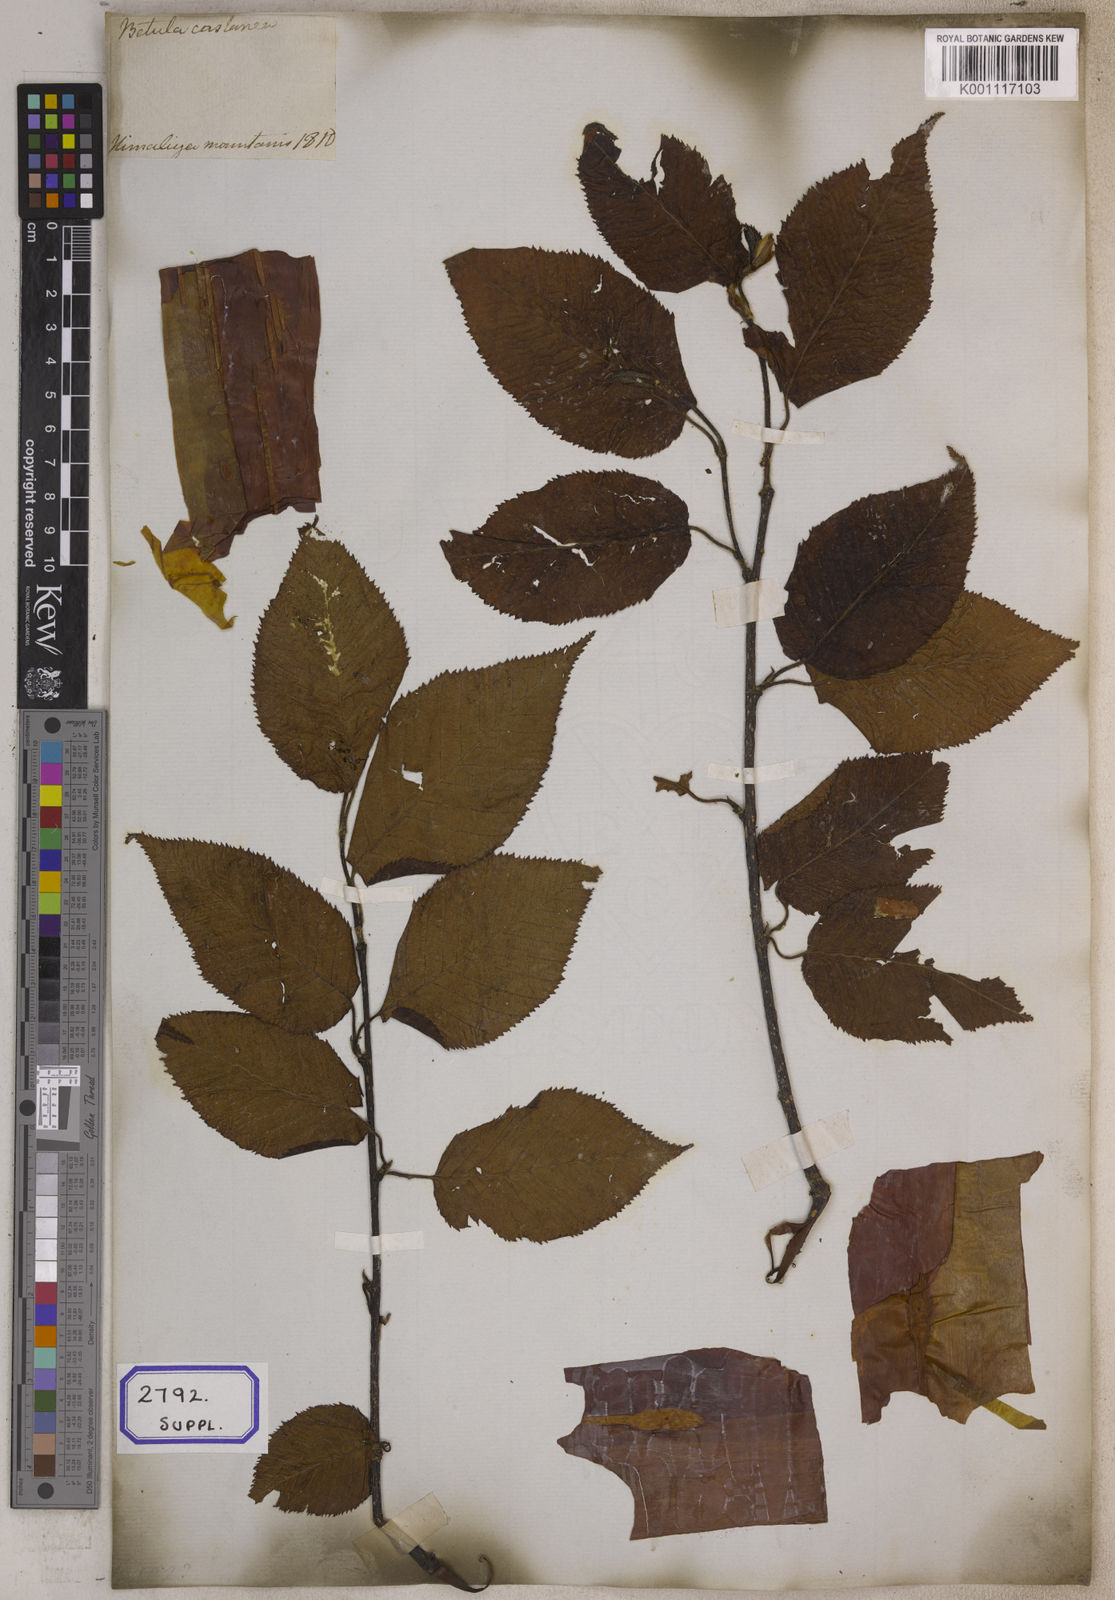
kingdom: Plantae
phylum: Tracheophyta
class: Magnoliopsida
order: Fagales
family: Betulaceae
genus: Betula
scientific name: Betula utilis
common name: Himalayan birch
